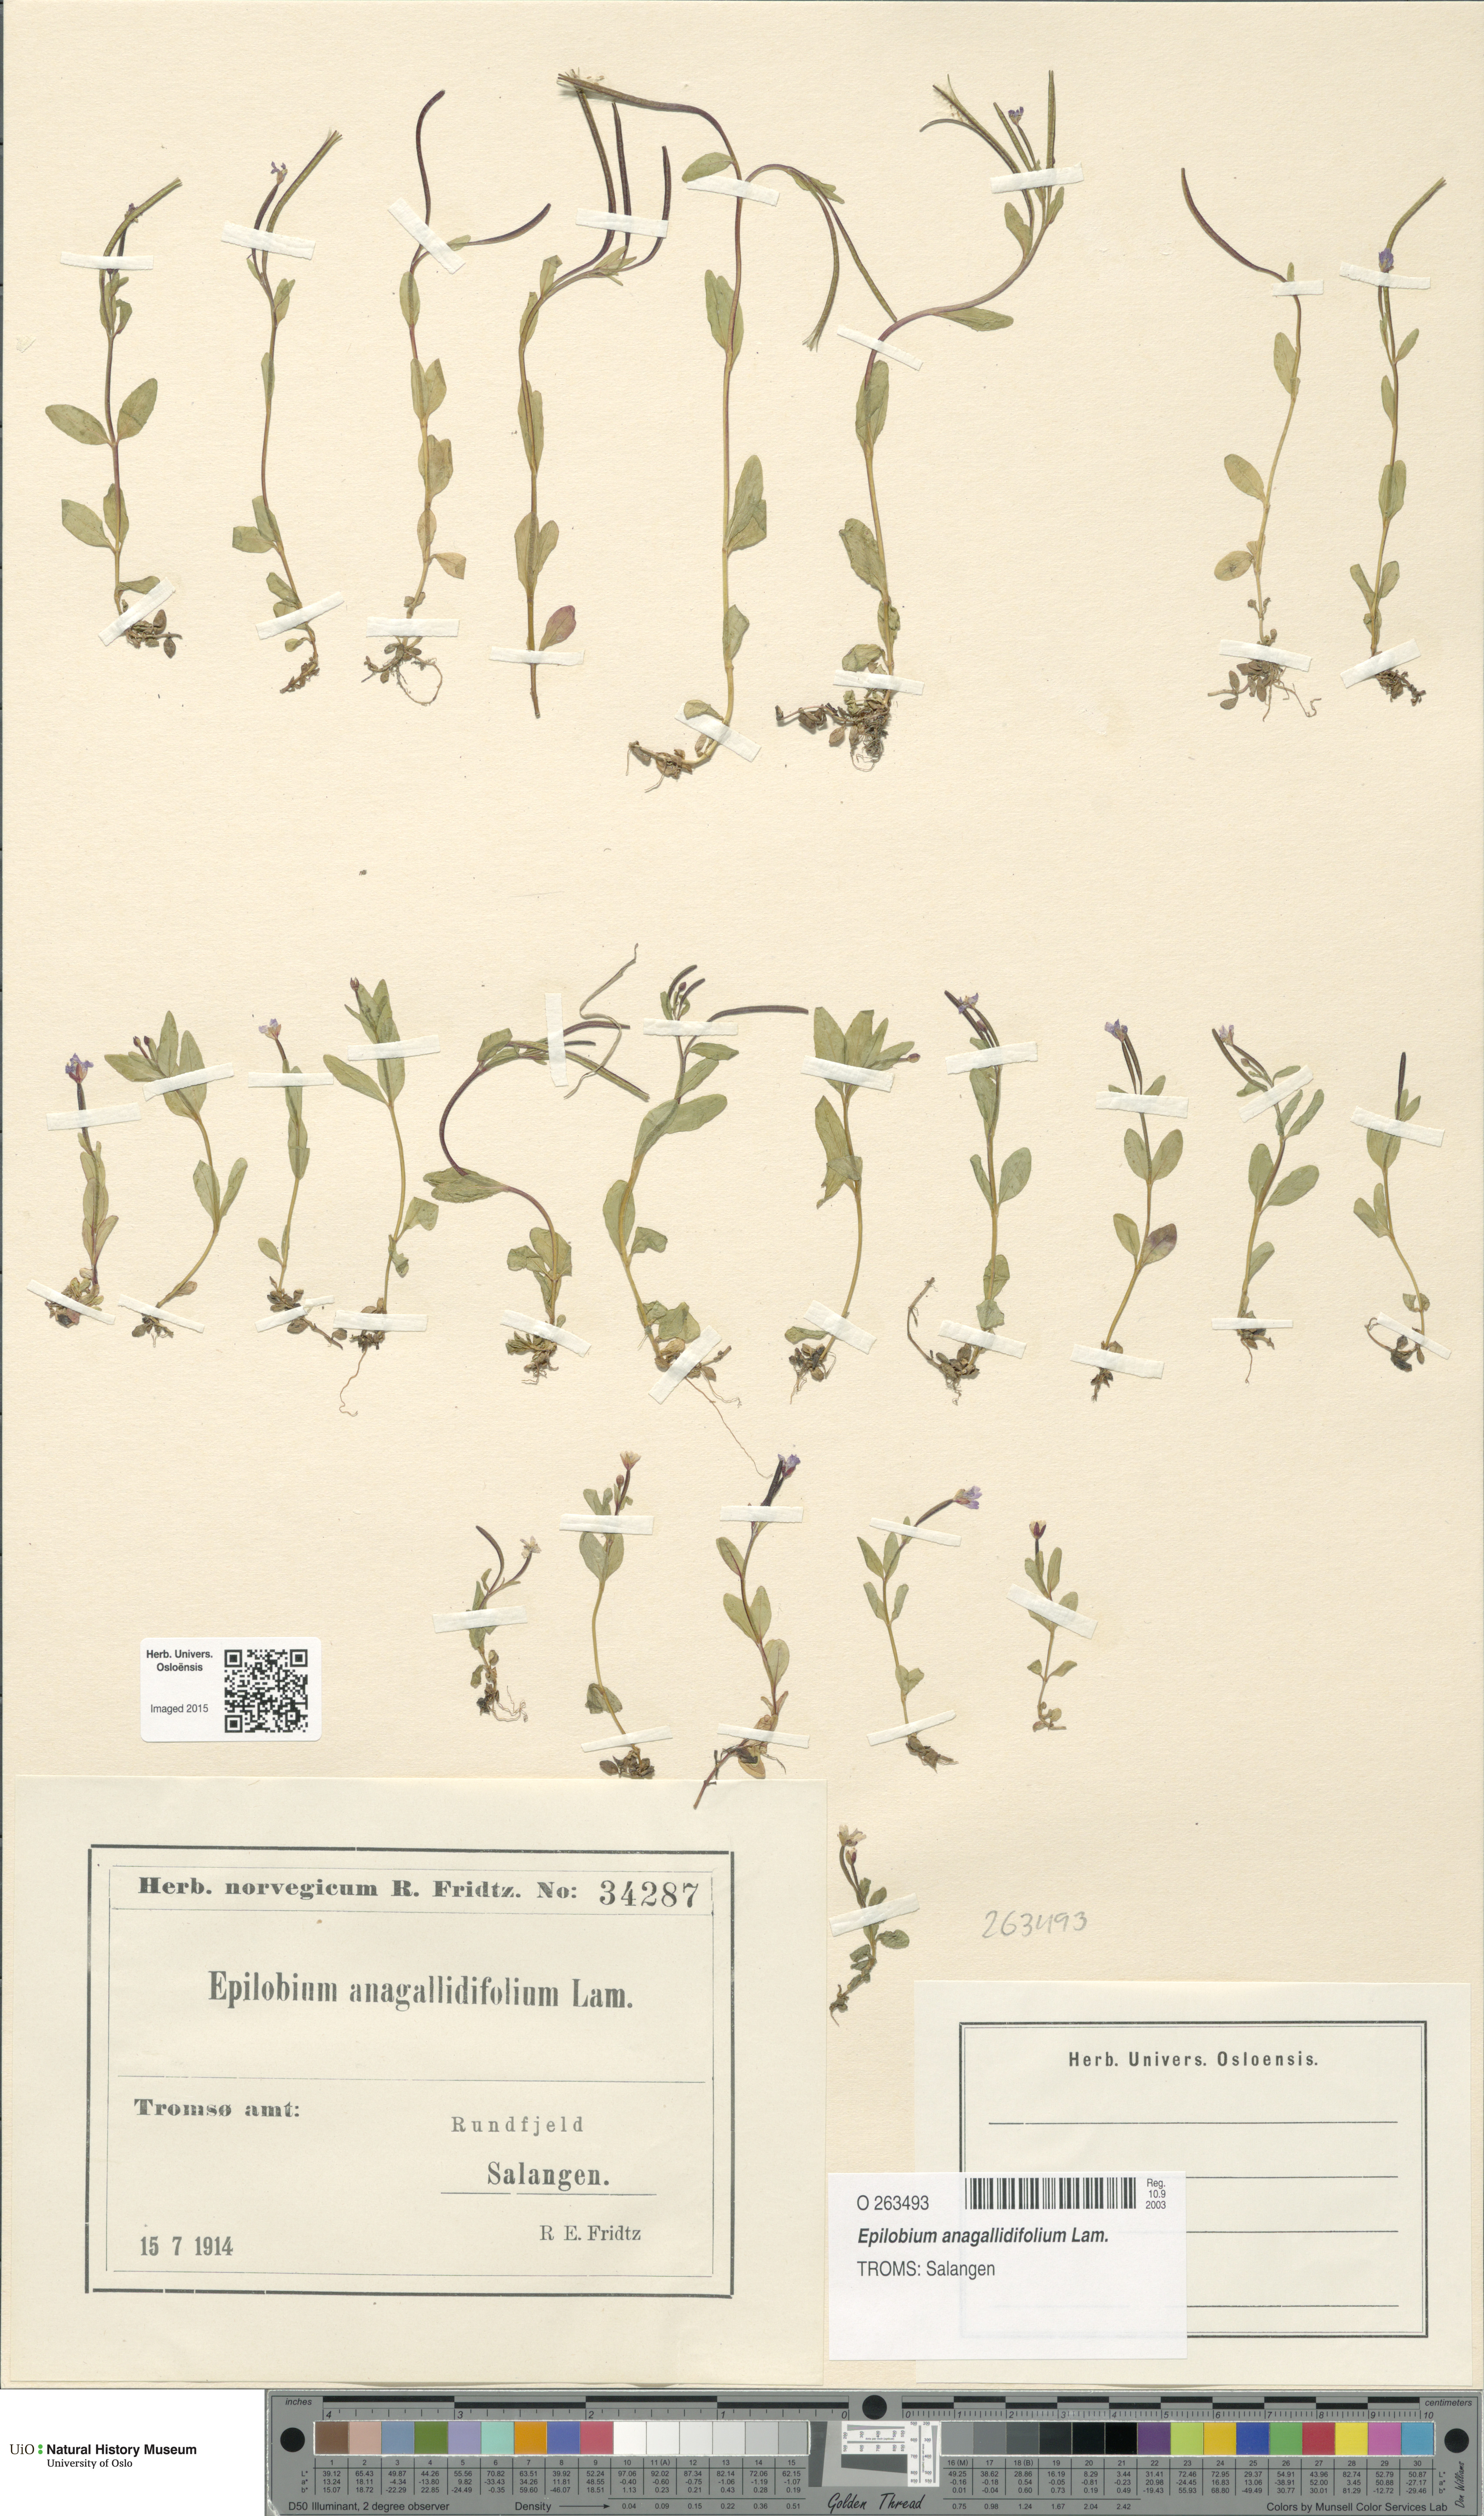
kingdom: Plantae
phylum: Tracheophyta
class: Magnoliopsida
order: Myrtales
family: Onagraceae
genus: Epilobium
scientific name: Epilobium anagallidifolium
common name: Alpine willowherb
